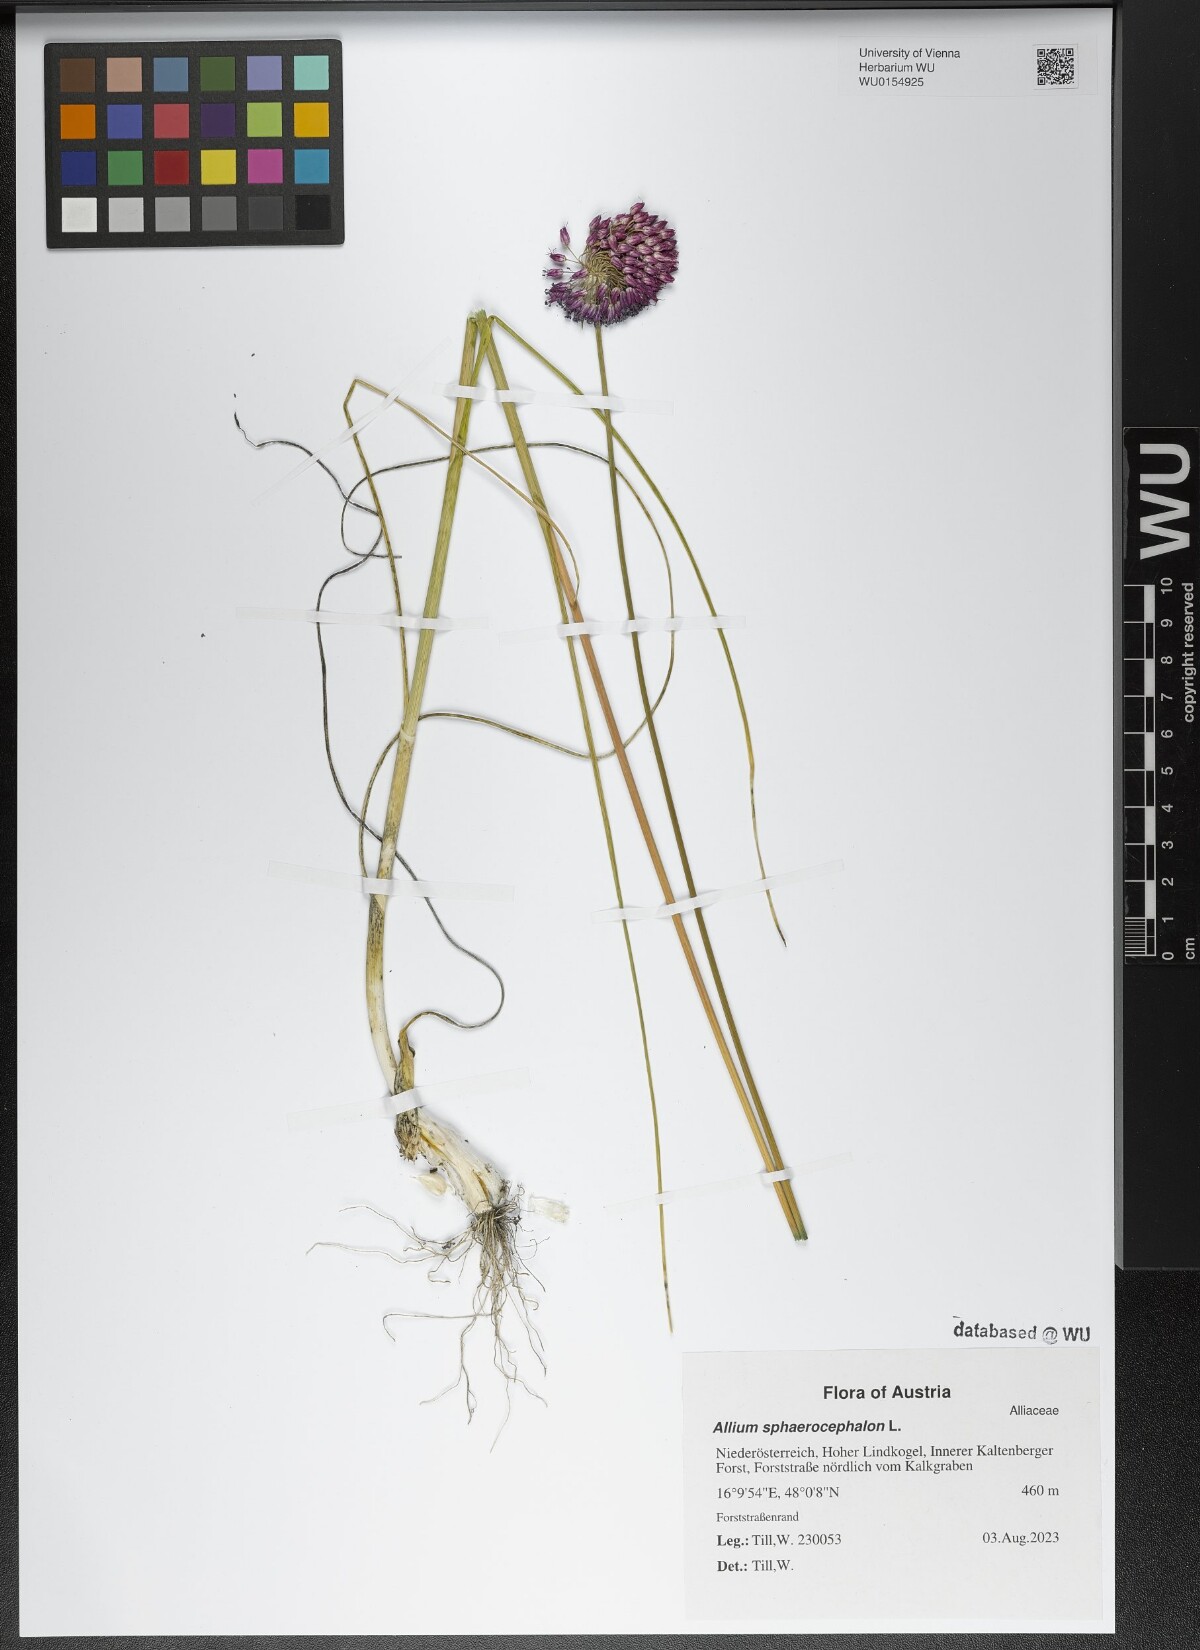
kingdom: Plantae
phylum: Tracheophyta
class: Liliopsida
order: Asparagales
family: Amaryllidaceae
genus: Allium
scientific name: Allium sphaerocephalon
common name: Round-headed leek
